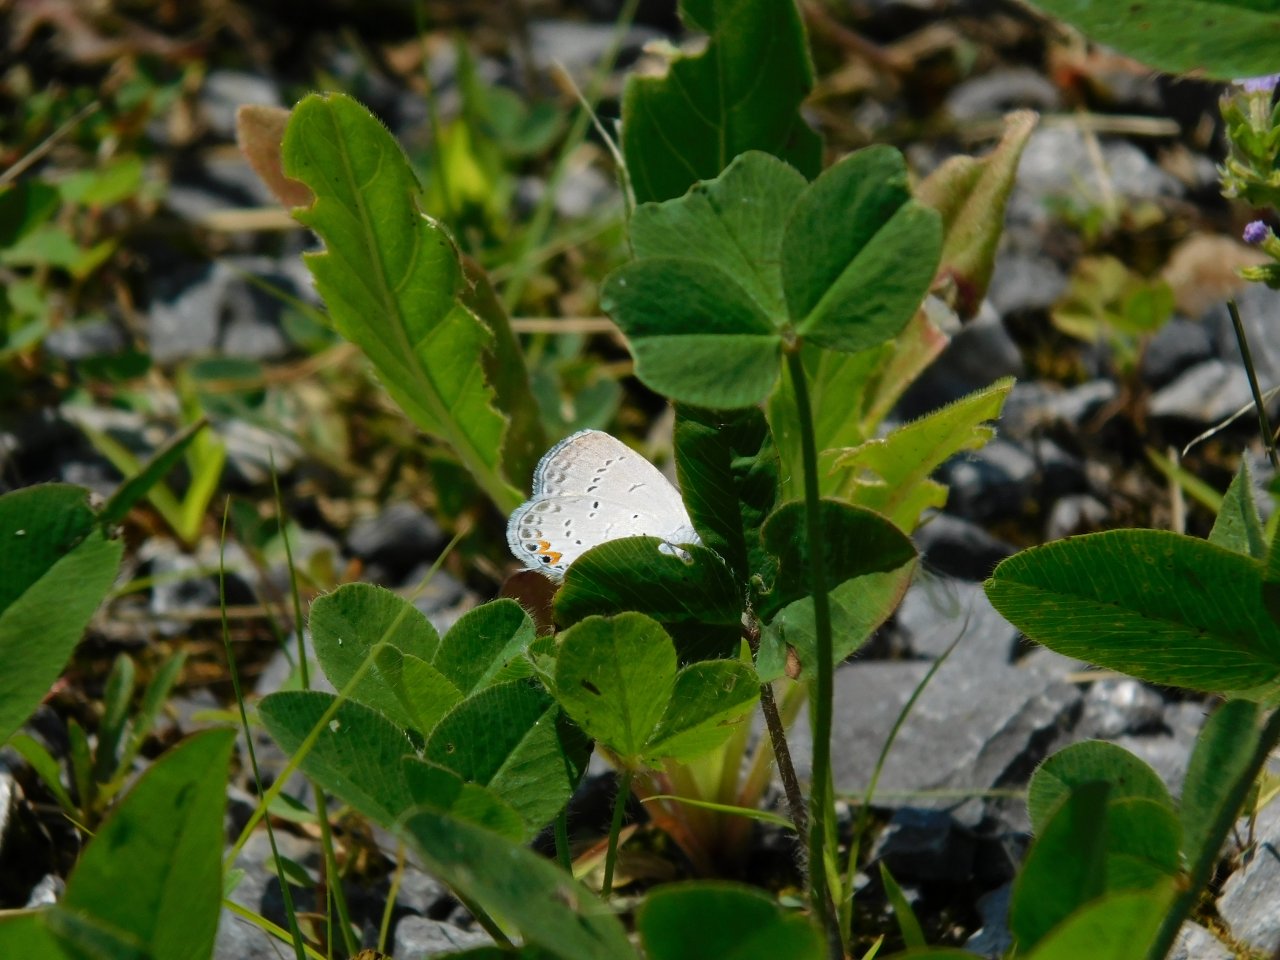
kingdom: Animalia
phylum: Arthropoda
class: Insecta
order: Lepidoptera
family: Lycaenidae
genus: Elkalyce
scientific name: Elkalyce comyntas
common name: Eastern Tailed-Blue
